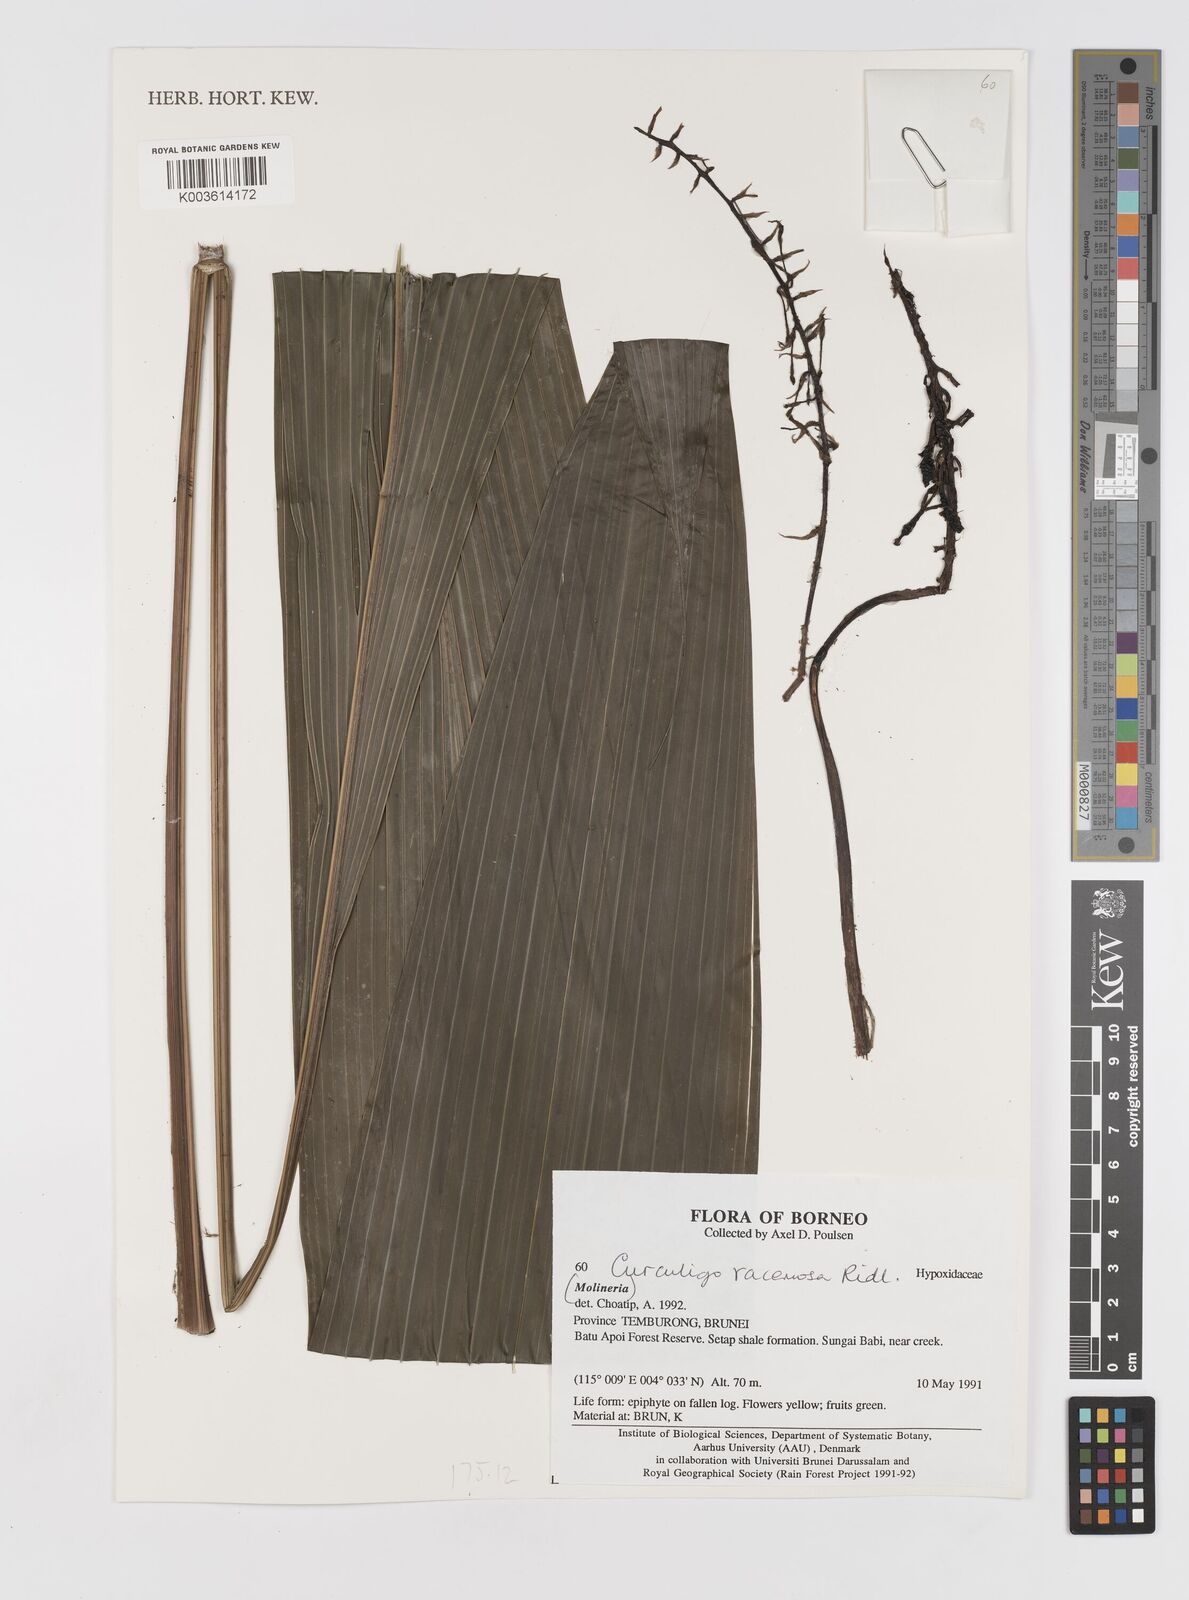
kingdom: Plantae
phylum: Tracheophyta
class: Liliopsida
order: Asparagales
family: Hypoxidaceae
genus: Curculigo
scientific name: Curculigo racemosa
